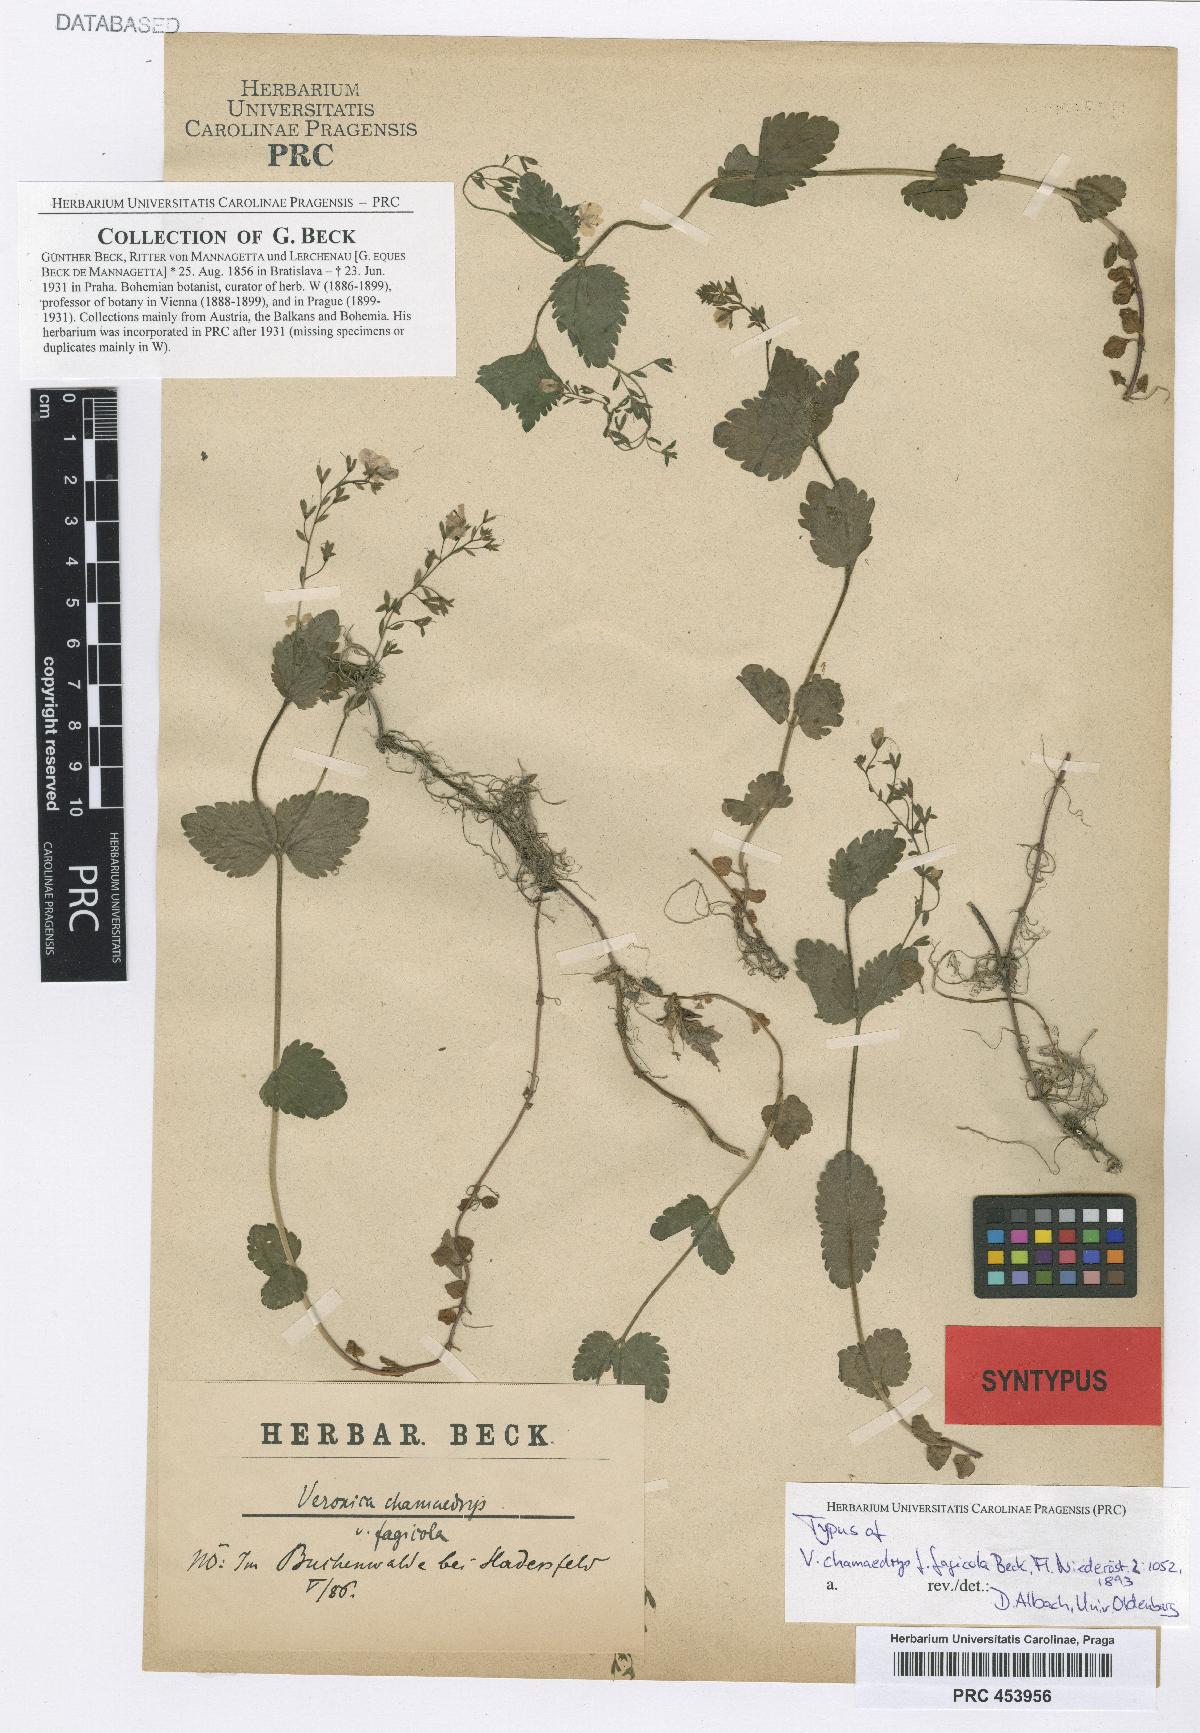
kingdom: Plantae
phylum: Tracheophyta
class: Magnoliopsida
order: Lamiales
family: Plantaginaceae
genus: Veronica
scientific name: Veronica chamaedrys
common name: Germander speedwell
